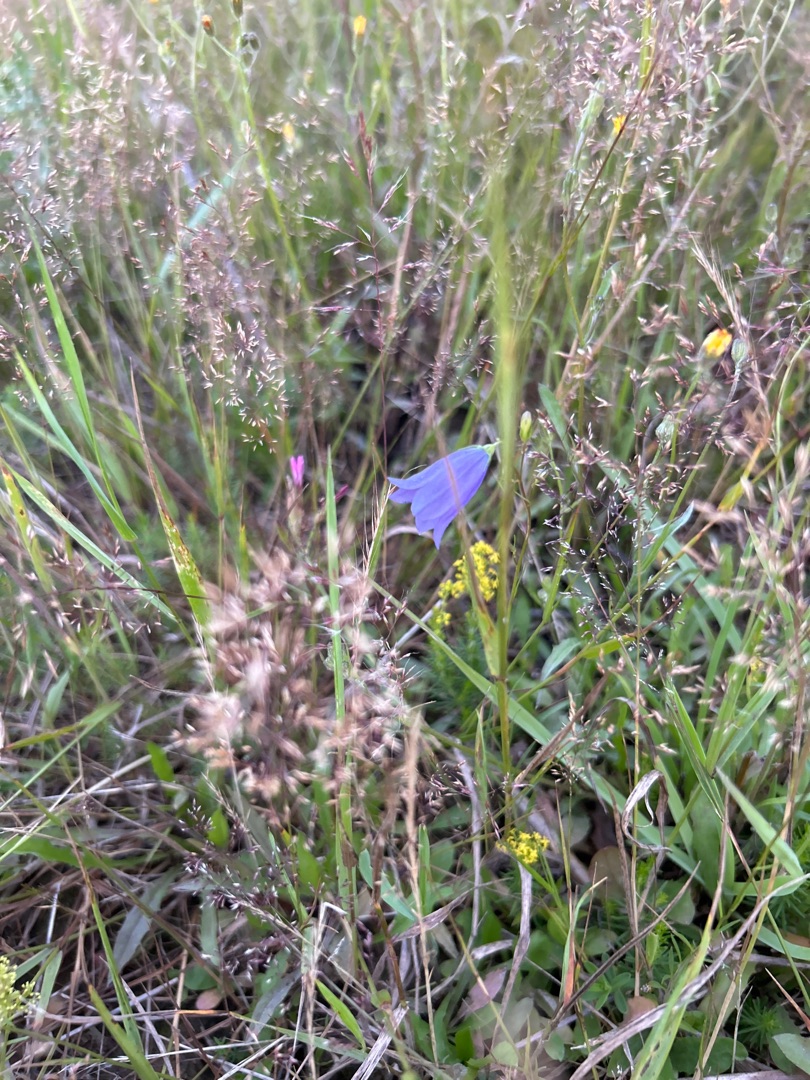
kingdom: Plantae
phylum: Tracheophyta
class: Magnoliopsida
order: Asterales
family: Campanulaceae
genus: Campanula
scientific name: Campanula rotundifolia
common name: Liden klokke
